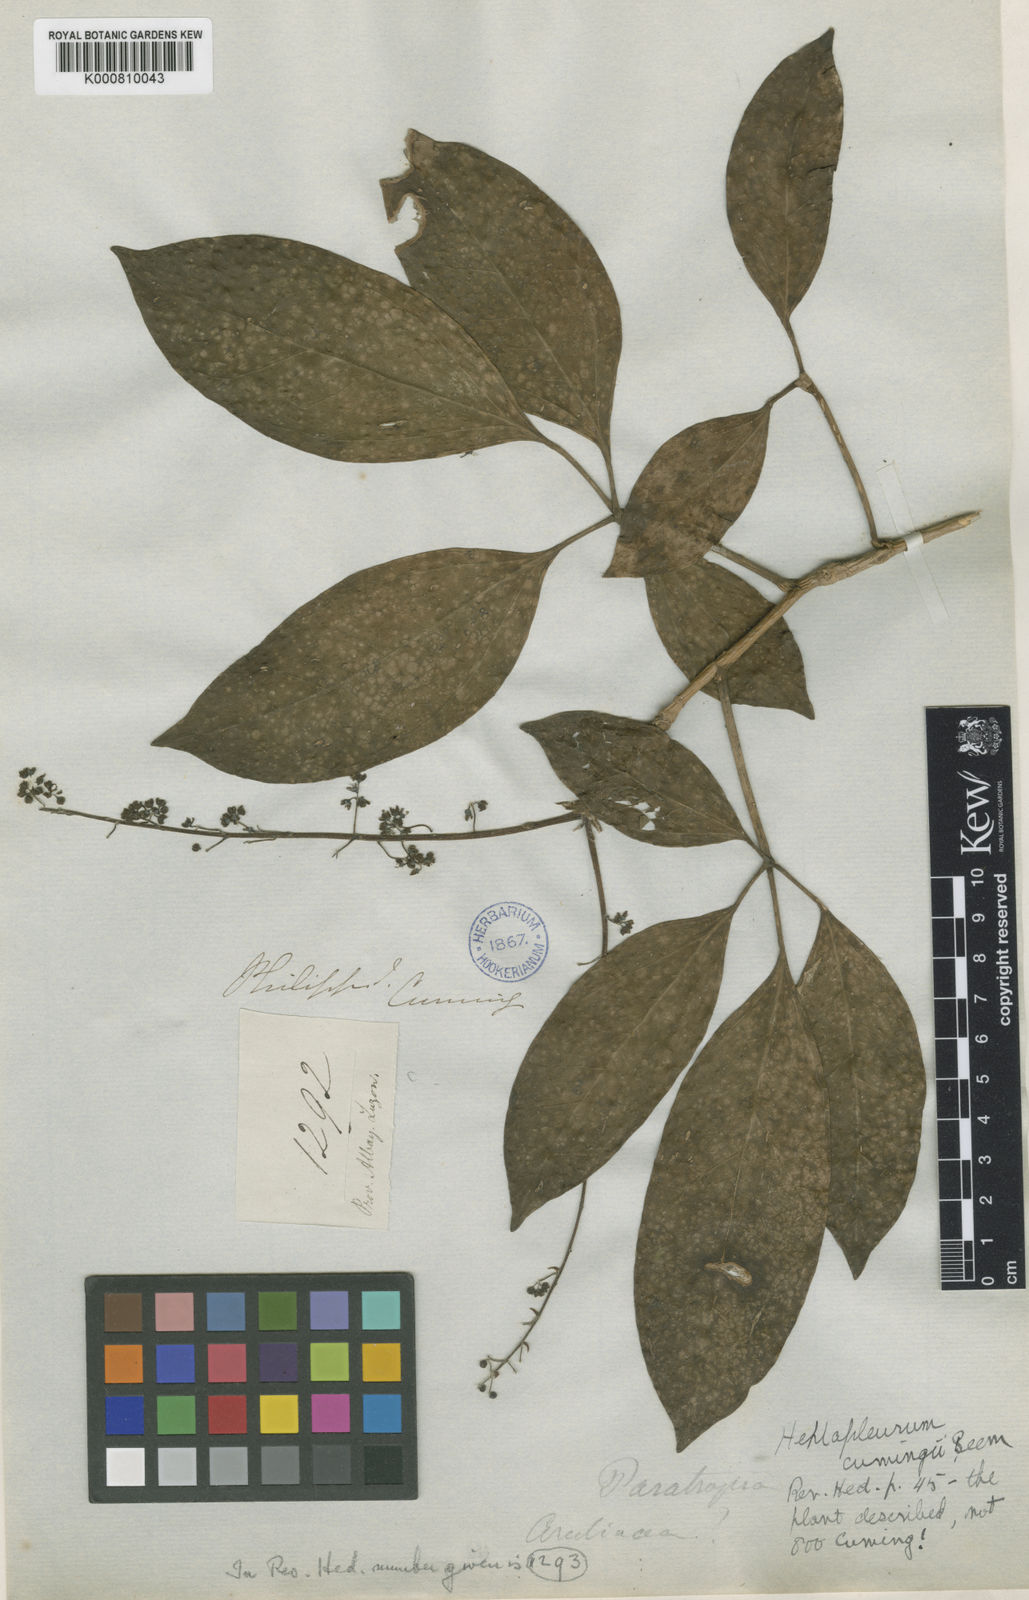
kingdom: Plantae
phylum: Tracheophyta
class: Magnoliopsida
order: Apiales
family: Araliaceae
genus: Heptapleurum
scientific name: Heptapleurum cumingii
